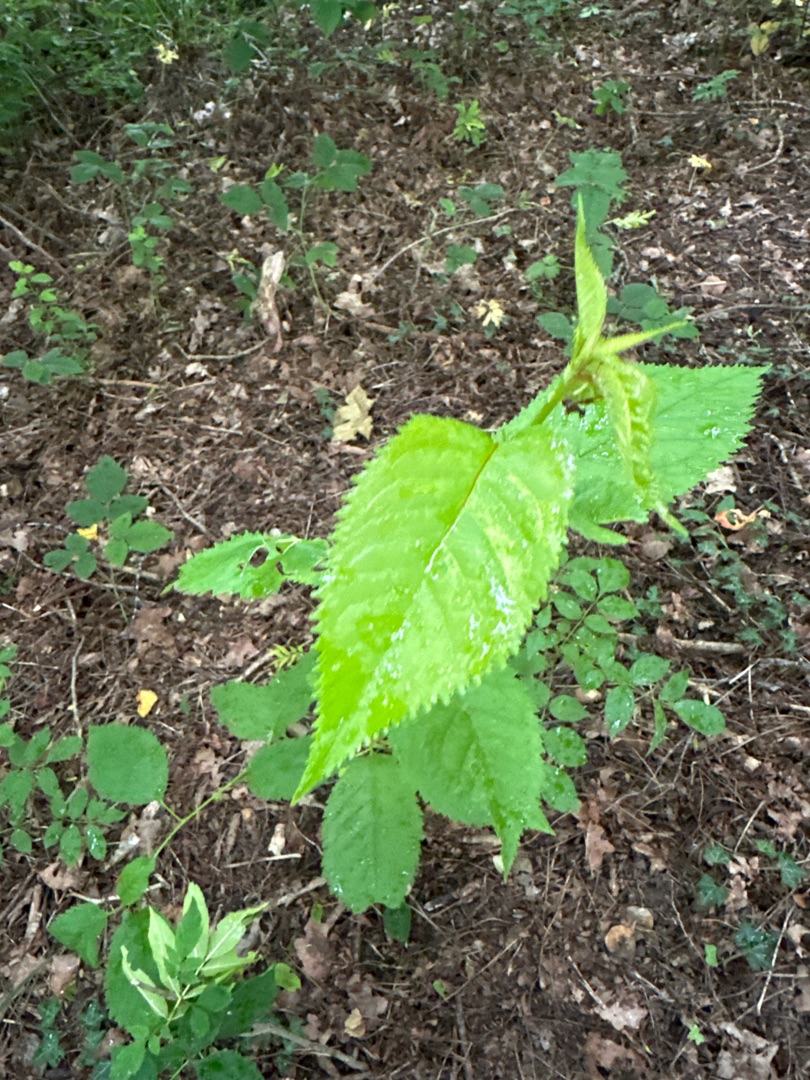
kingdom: Plantae
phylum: Tracheophyta
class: Magnoliopsida
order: Rosales
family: Rosaceae
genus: Prunus
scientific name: Prunus avium
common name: Fugle-kirsebær
